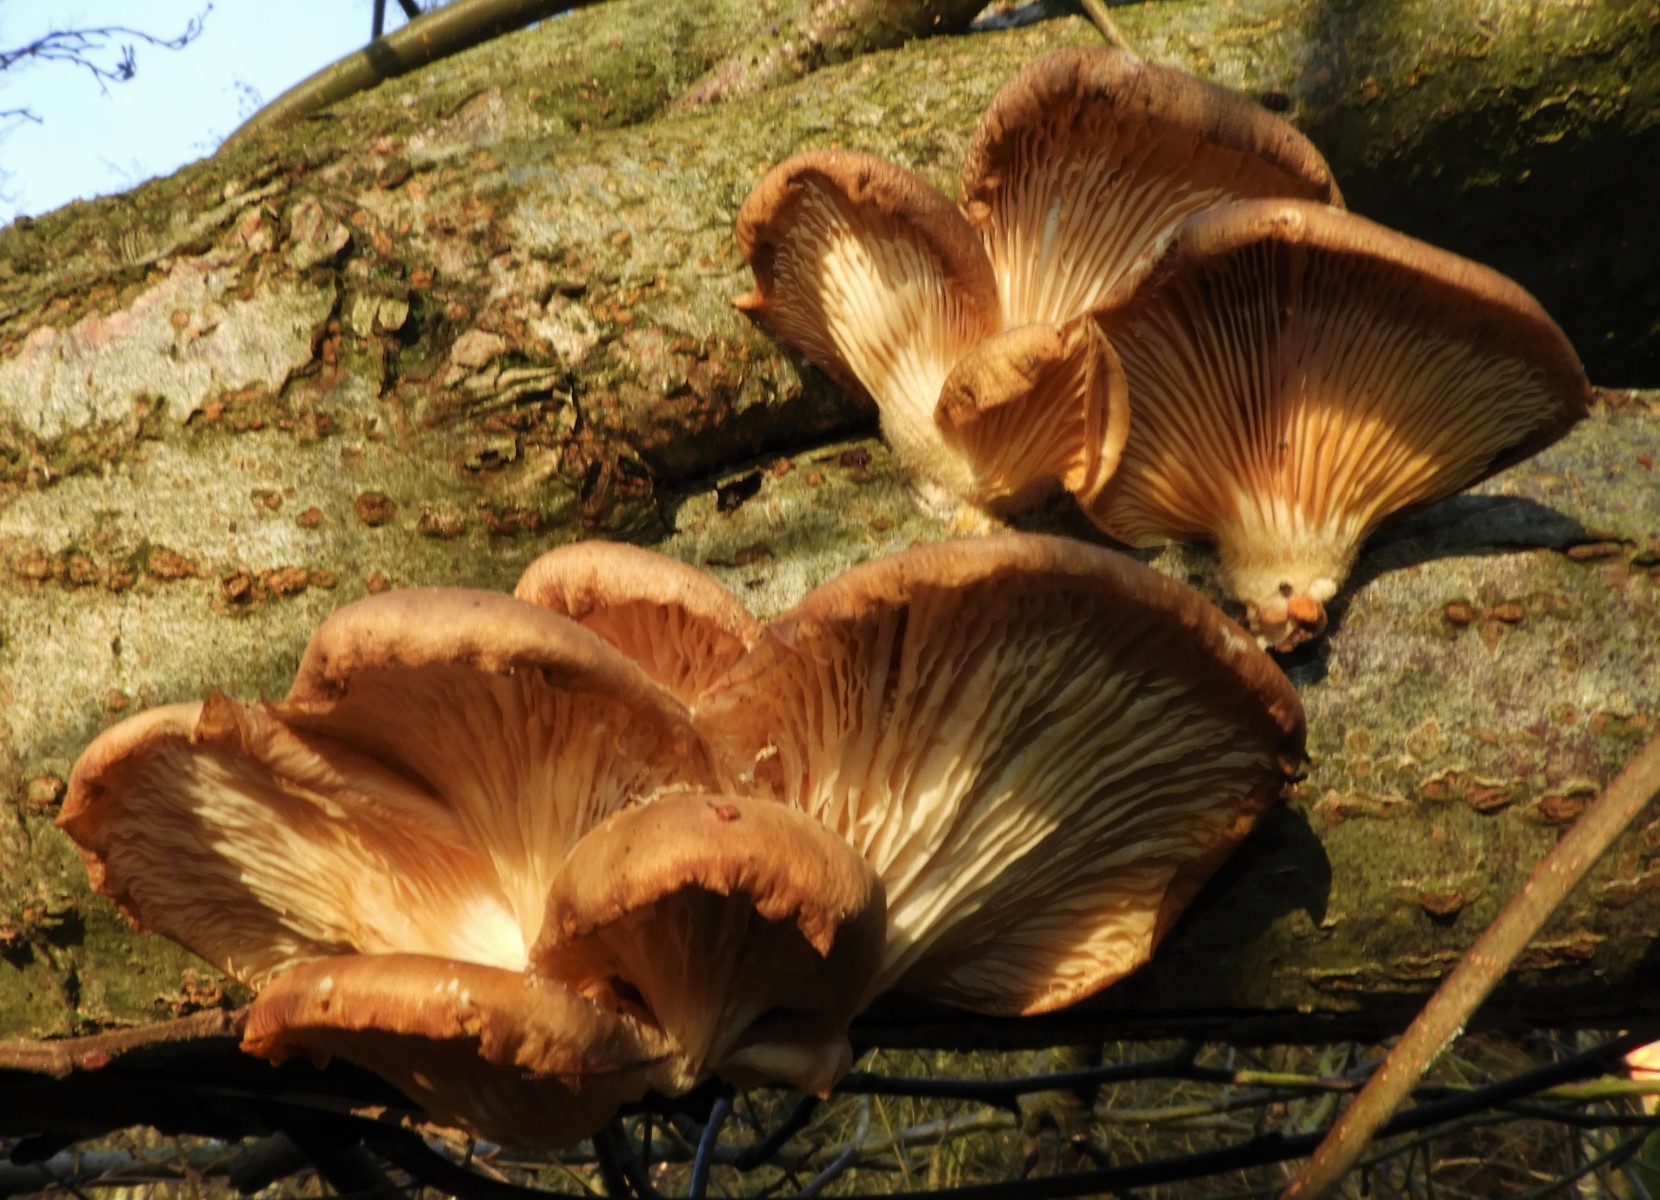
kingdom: Fungi
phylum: Basidiomycota
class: Agaricomycetes
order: Agaricales
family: Pleurotaceae
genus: Pleurotus
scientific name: Pleurotus ostreatus
